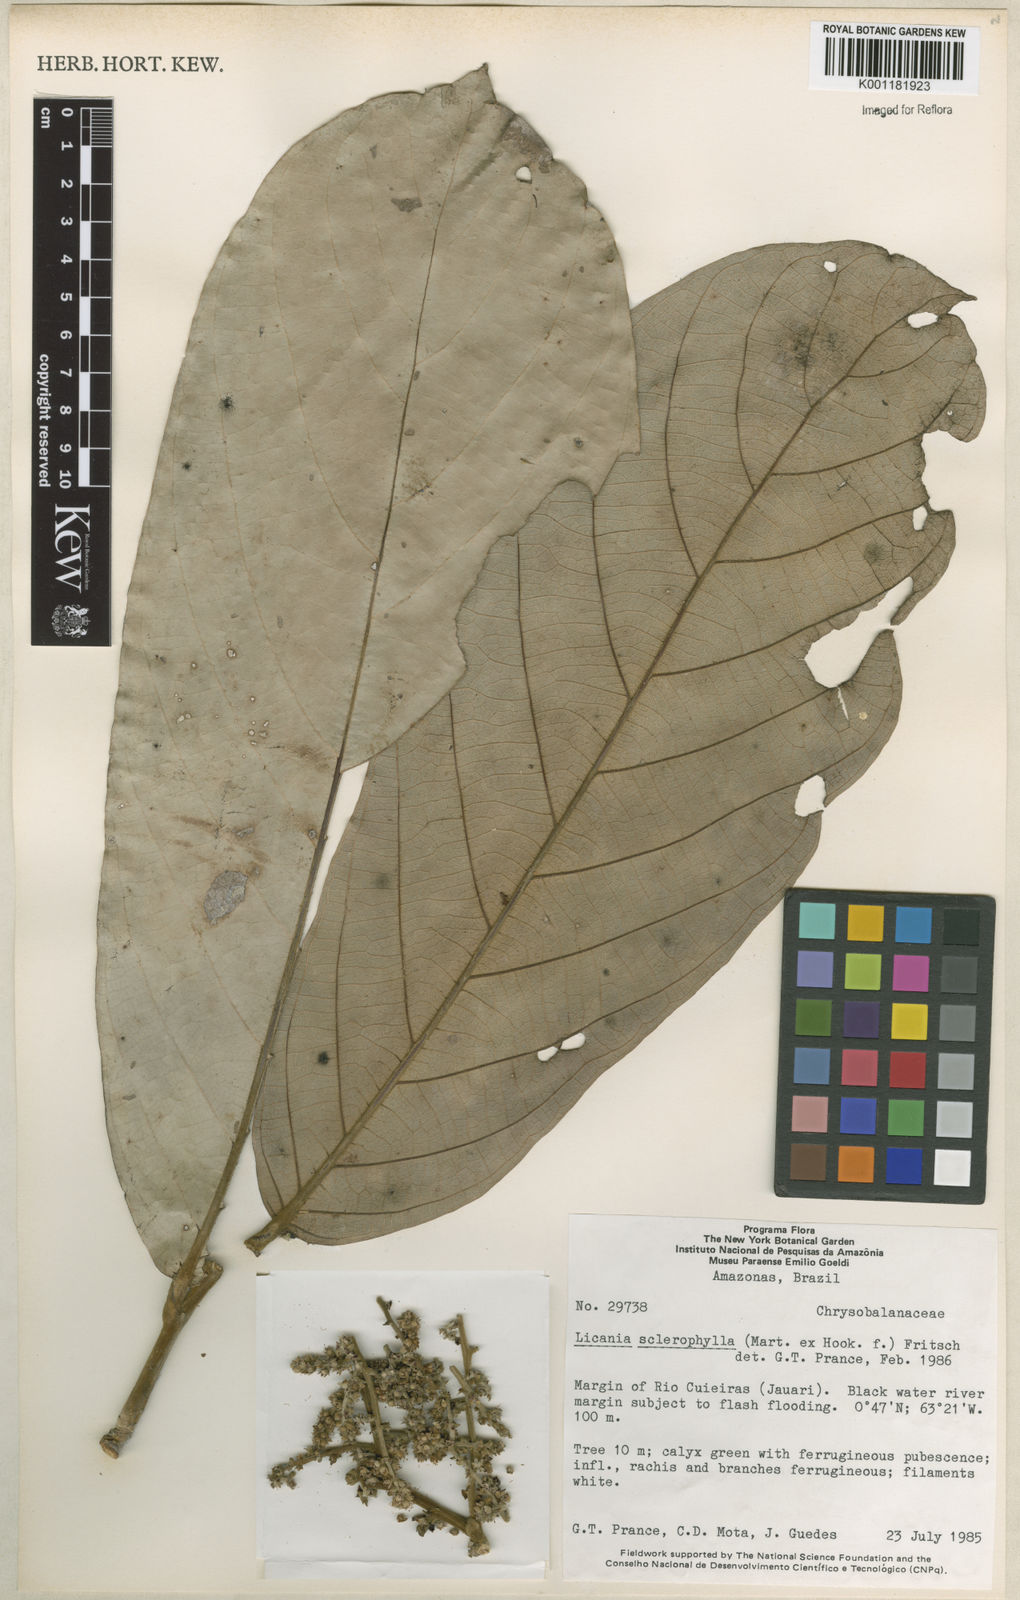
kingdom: Plantae
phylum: Tracheophyta
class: Magnoliopsida
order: Malpighiales
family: Chrysobalanaceae
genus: Leptobalanus
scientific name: Leptobalanus sclerophyllus
